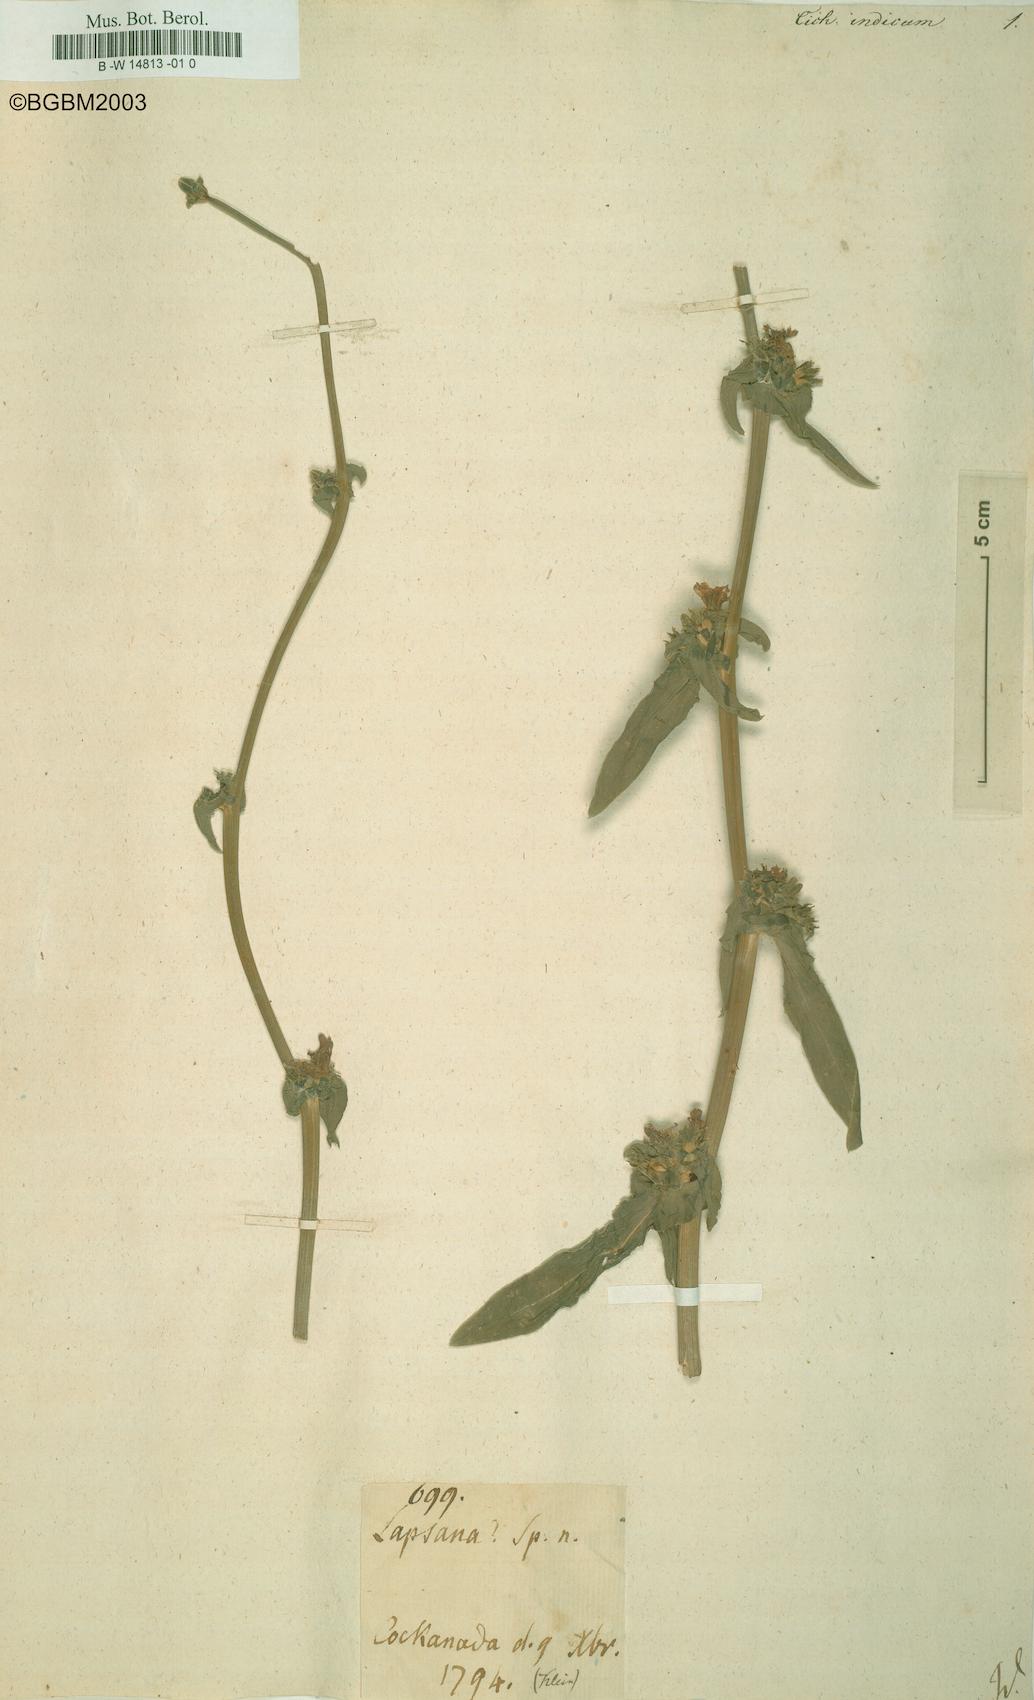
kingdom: Plantae
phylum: Tracheophyta
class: Magnoliopsida
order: Asterales
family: Asteraceae
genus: Cichorium
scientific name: Cichorium intybus
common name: Chicory
